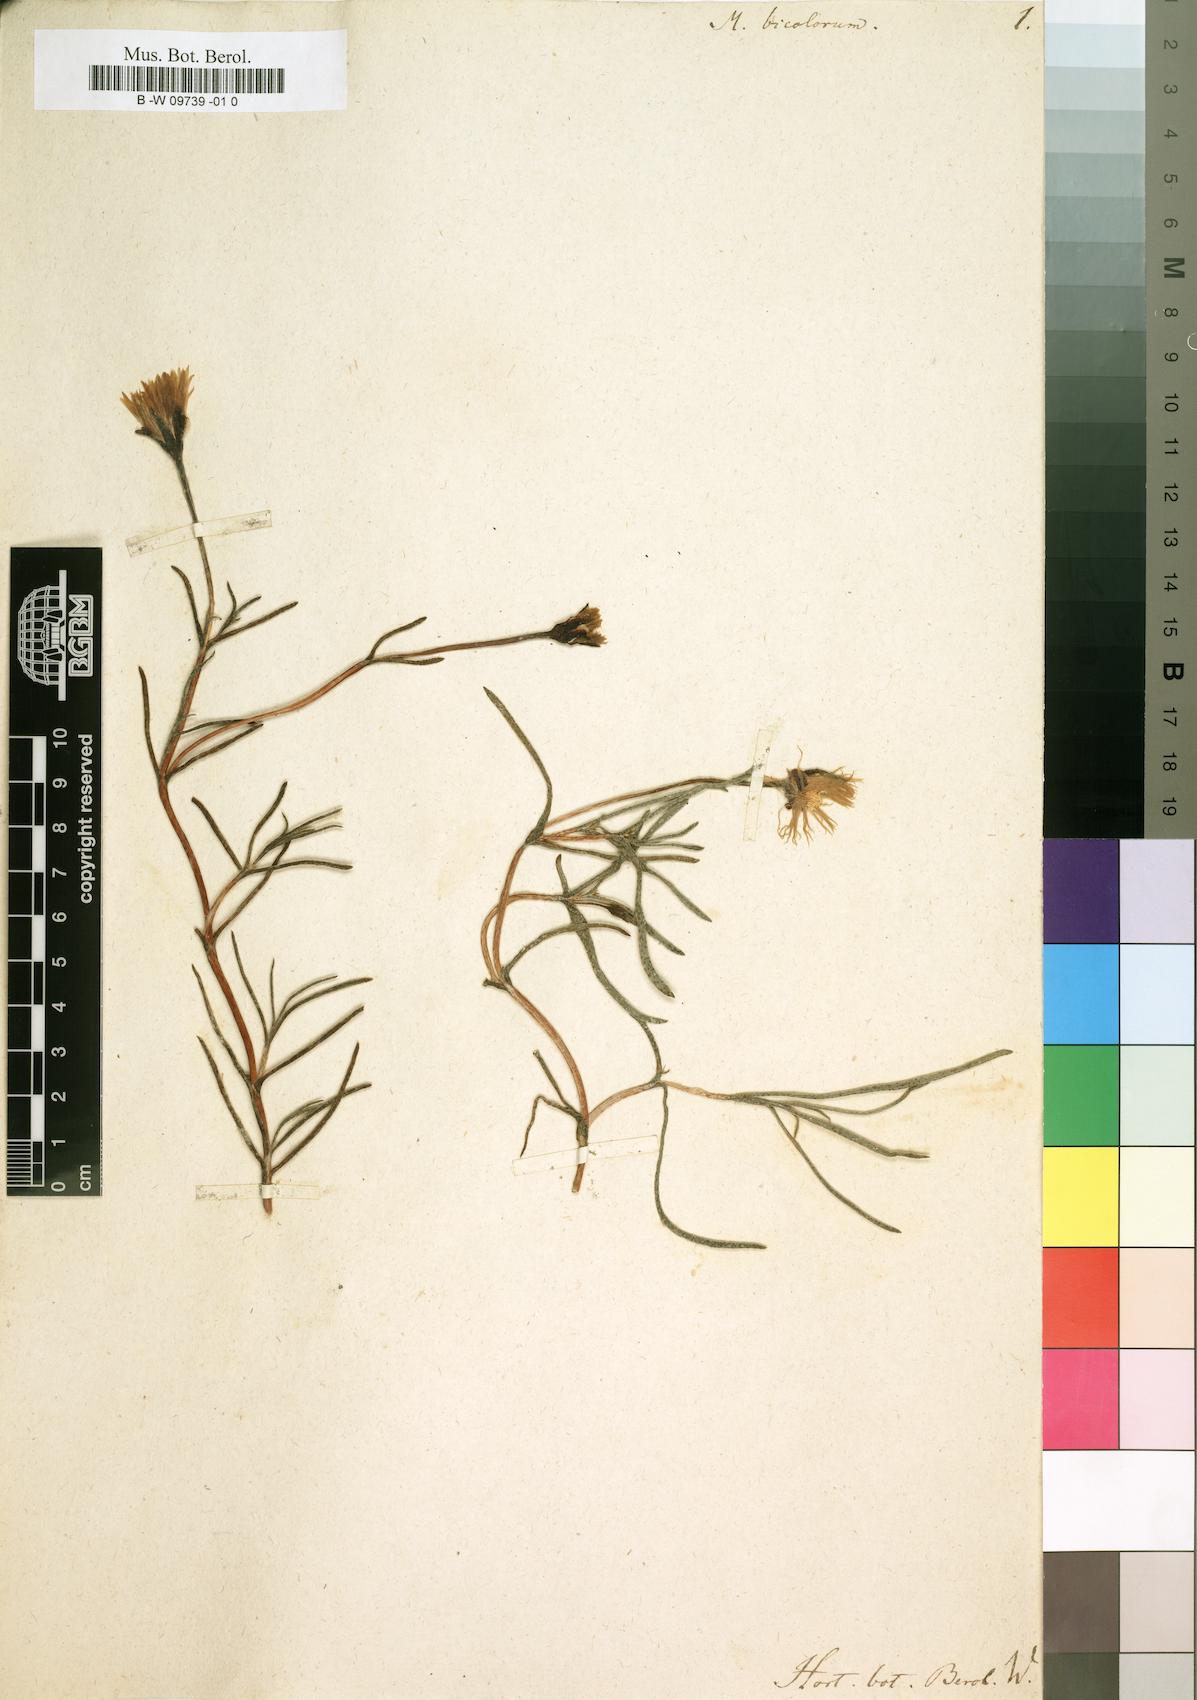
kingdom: Plantae
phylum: Tracheophyta
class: Magnoliopsida
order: Caryophyllales
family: Aizoaceae
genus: Lampranthus
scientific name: Lampranthus bicolor
